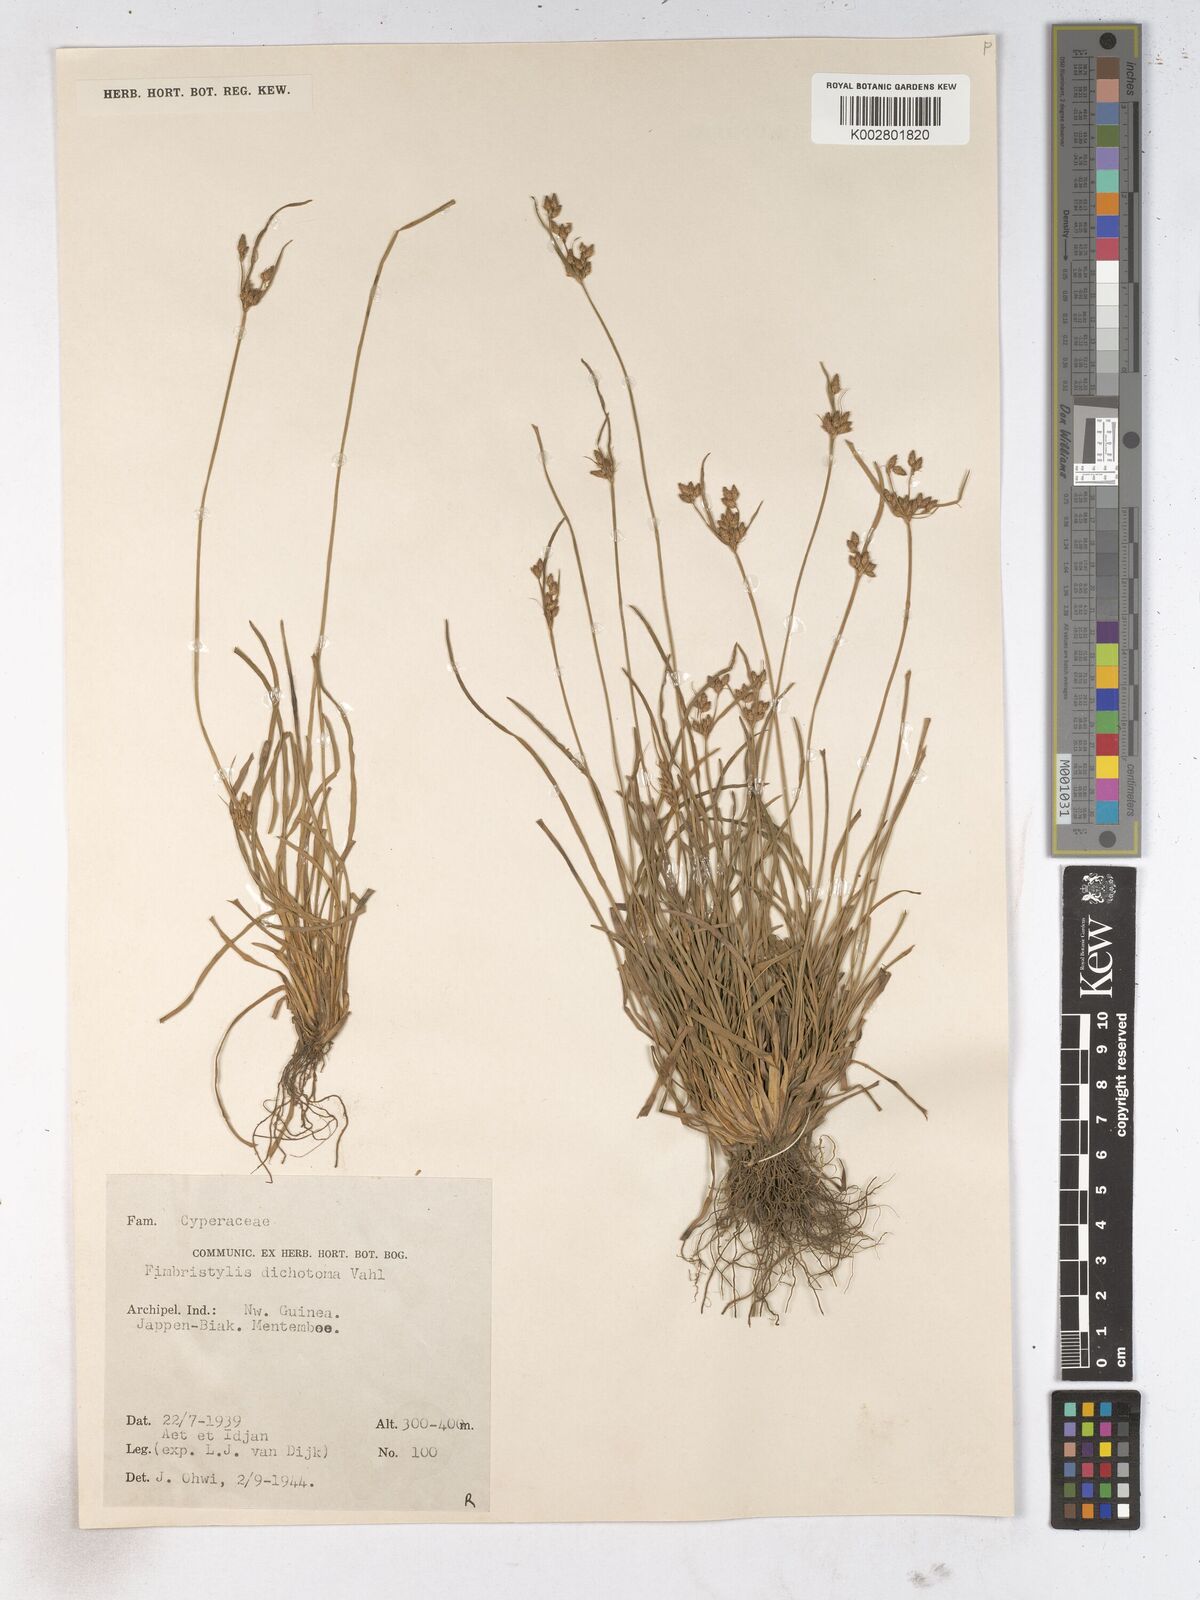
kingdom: Plantae
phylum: Tracheophyta
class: Liliopsida
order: Poales
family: Cyperaceae
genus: Fimbristylis
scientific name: Fimbristylis dichotoma
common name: Forked fimbry
